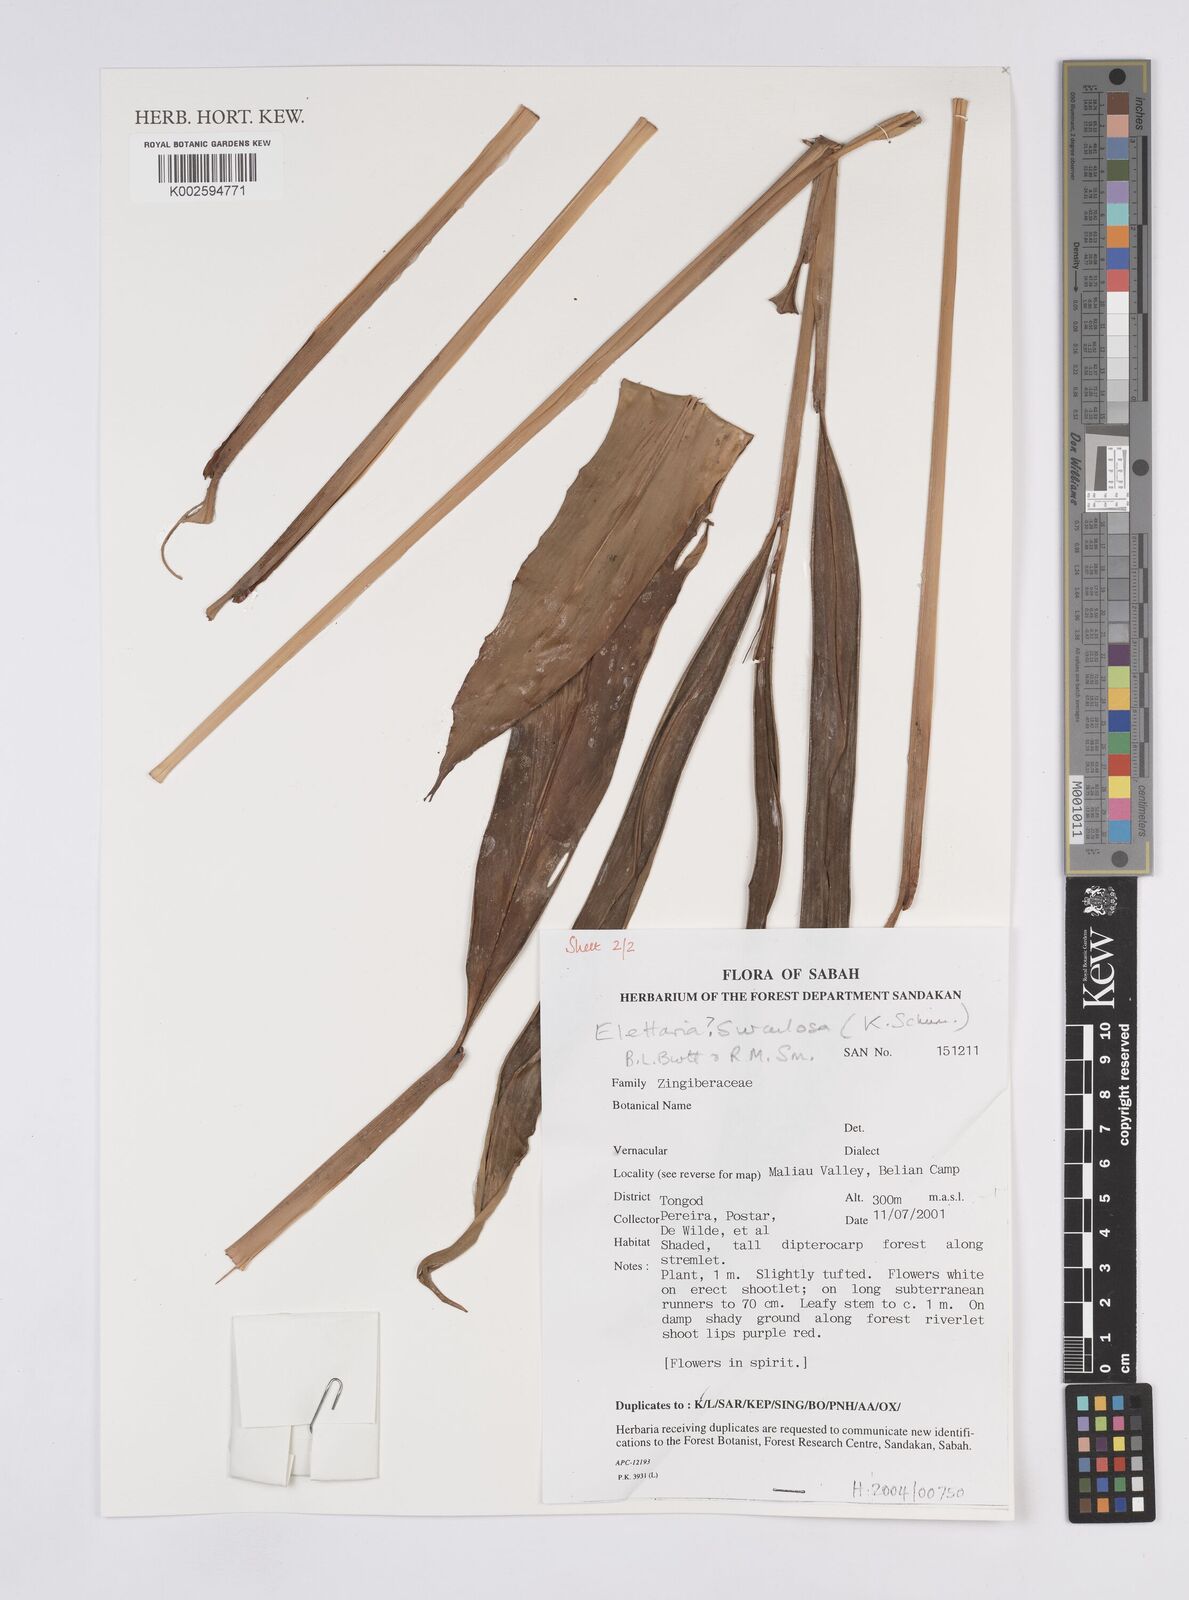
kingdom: Plantae
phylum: Tracheophyta
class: Liliopsida
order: Zingiberales
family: Zingiberaceae
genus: Sulettaria
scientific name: Sulettaria surculosa
